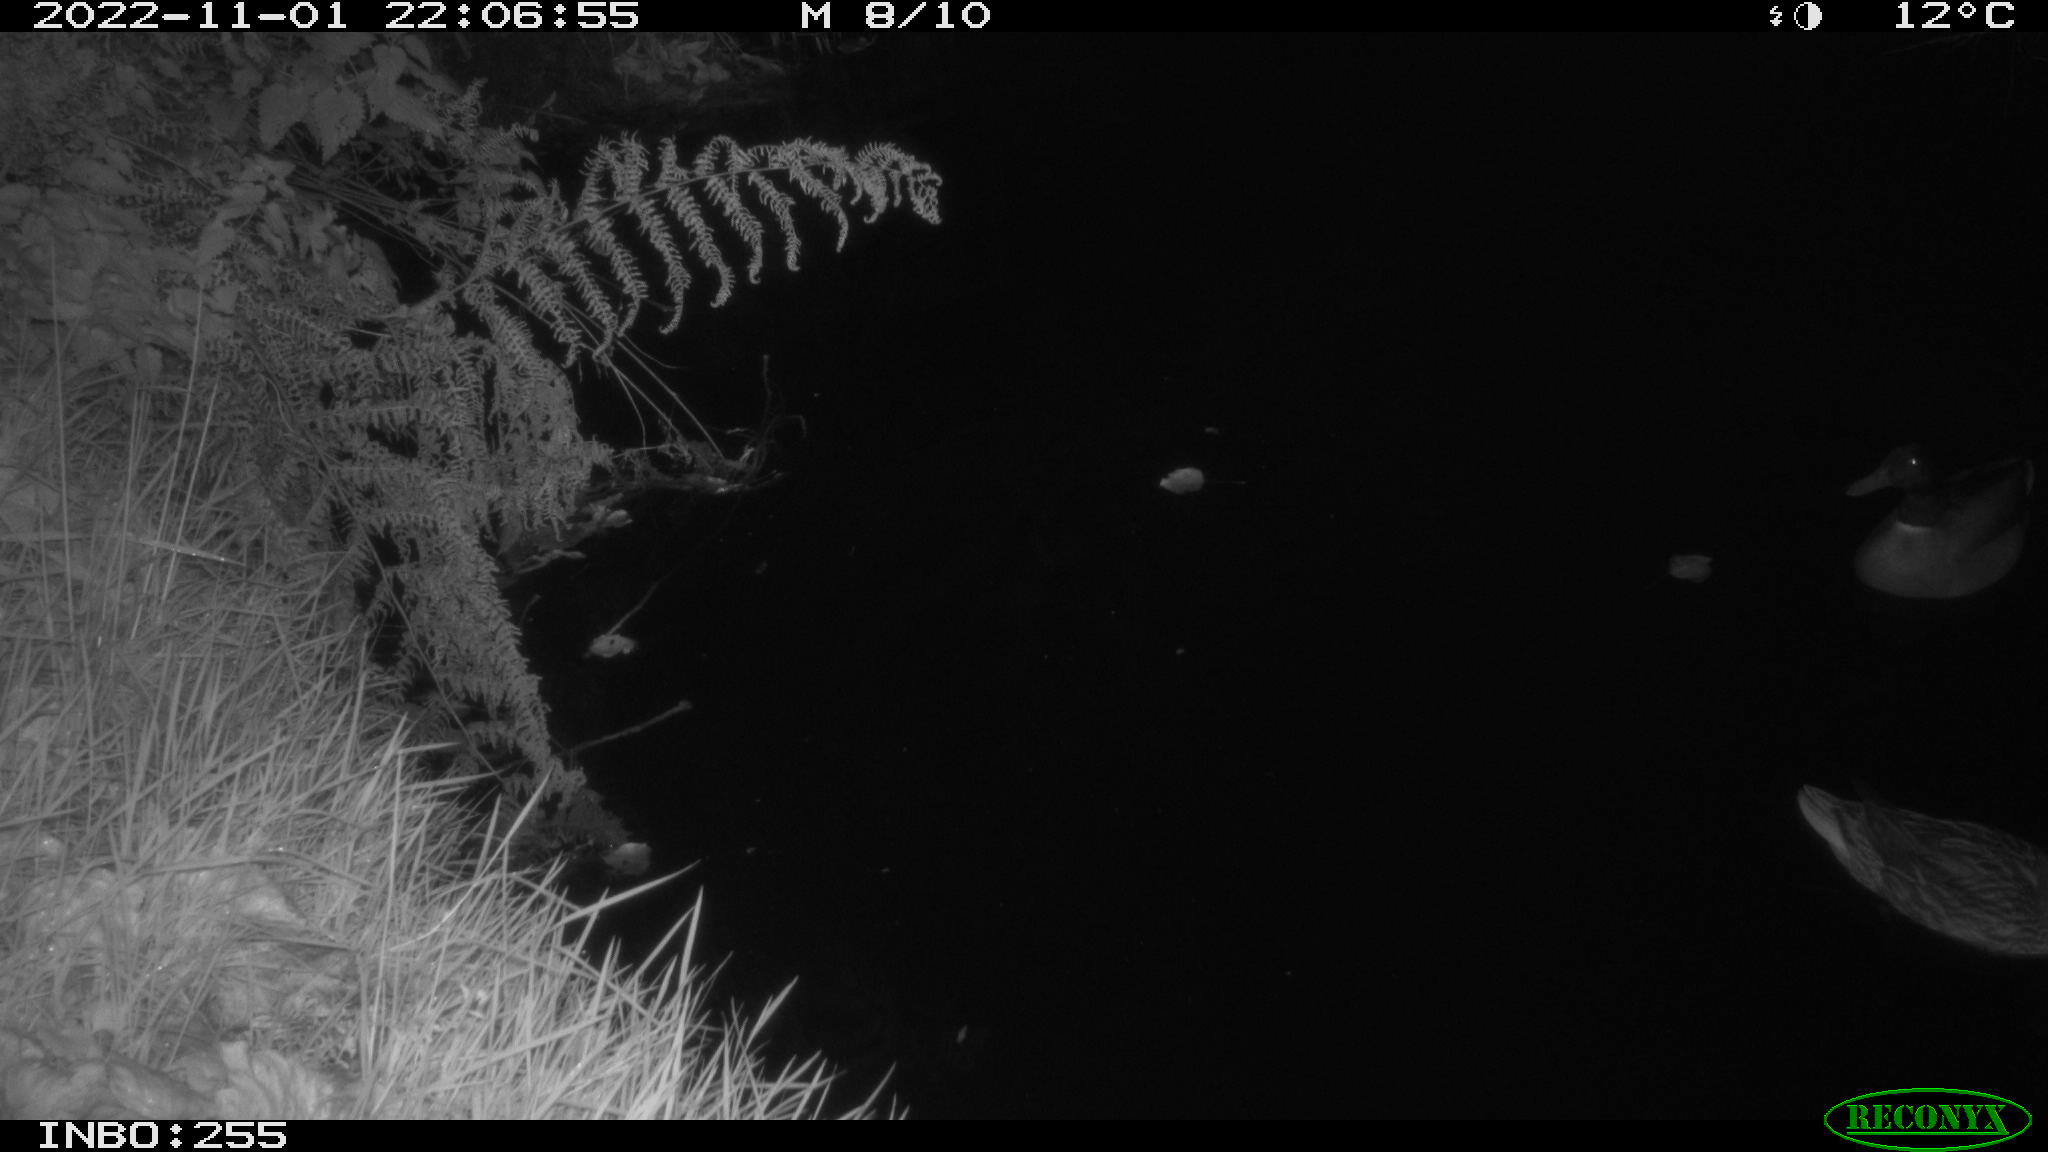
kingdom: Animalia
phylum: Chordata
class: Aves
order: Anseriformes
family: Anatidae
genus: Anas
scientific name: Anas
